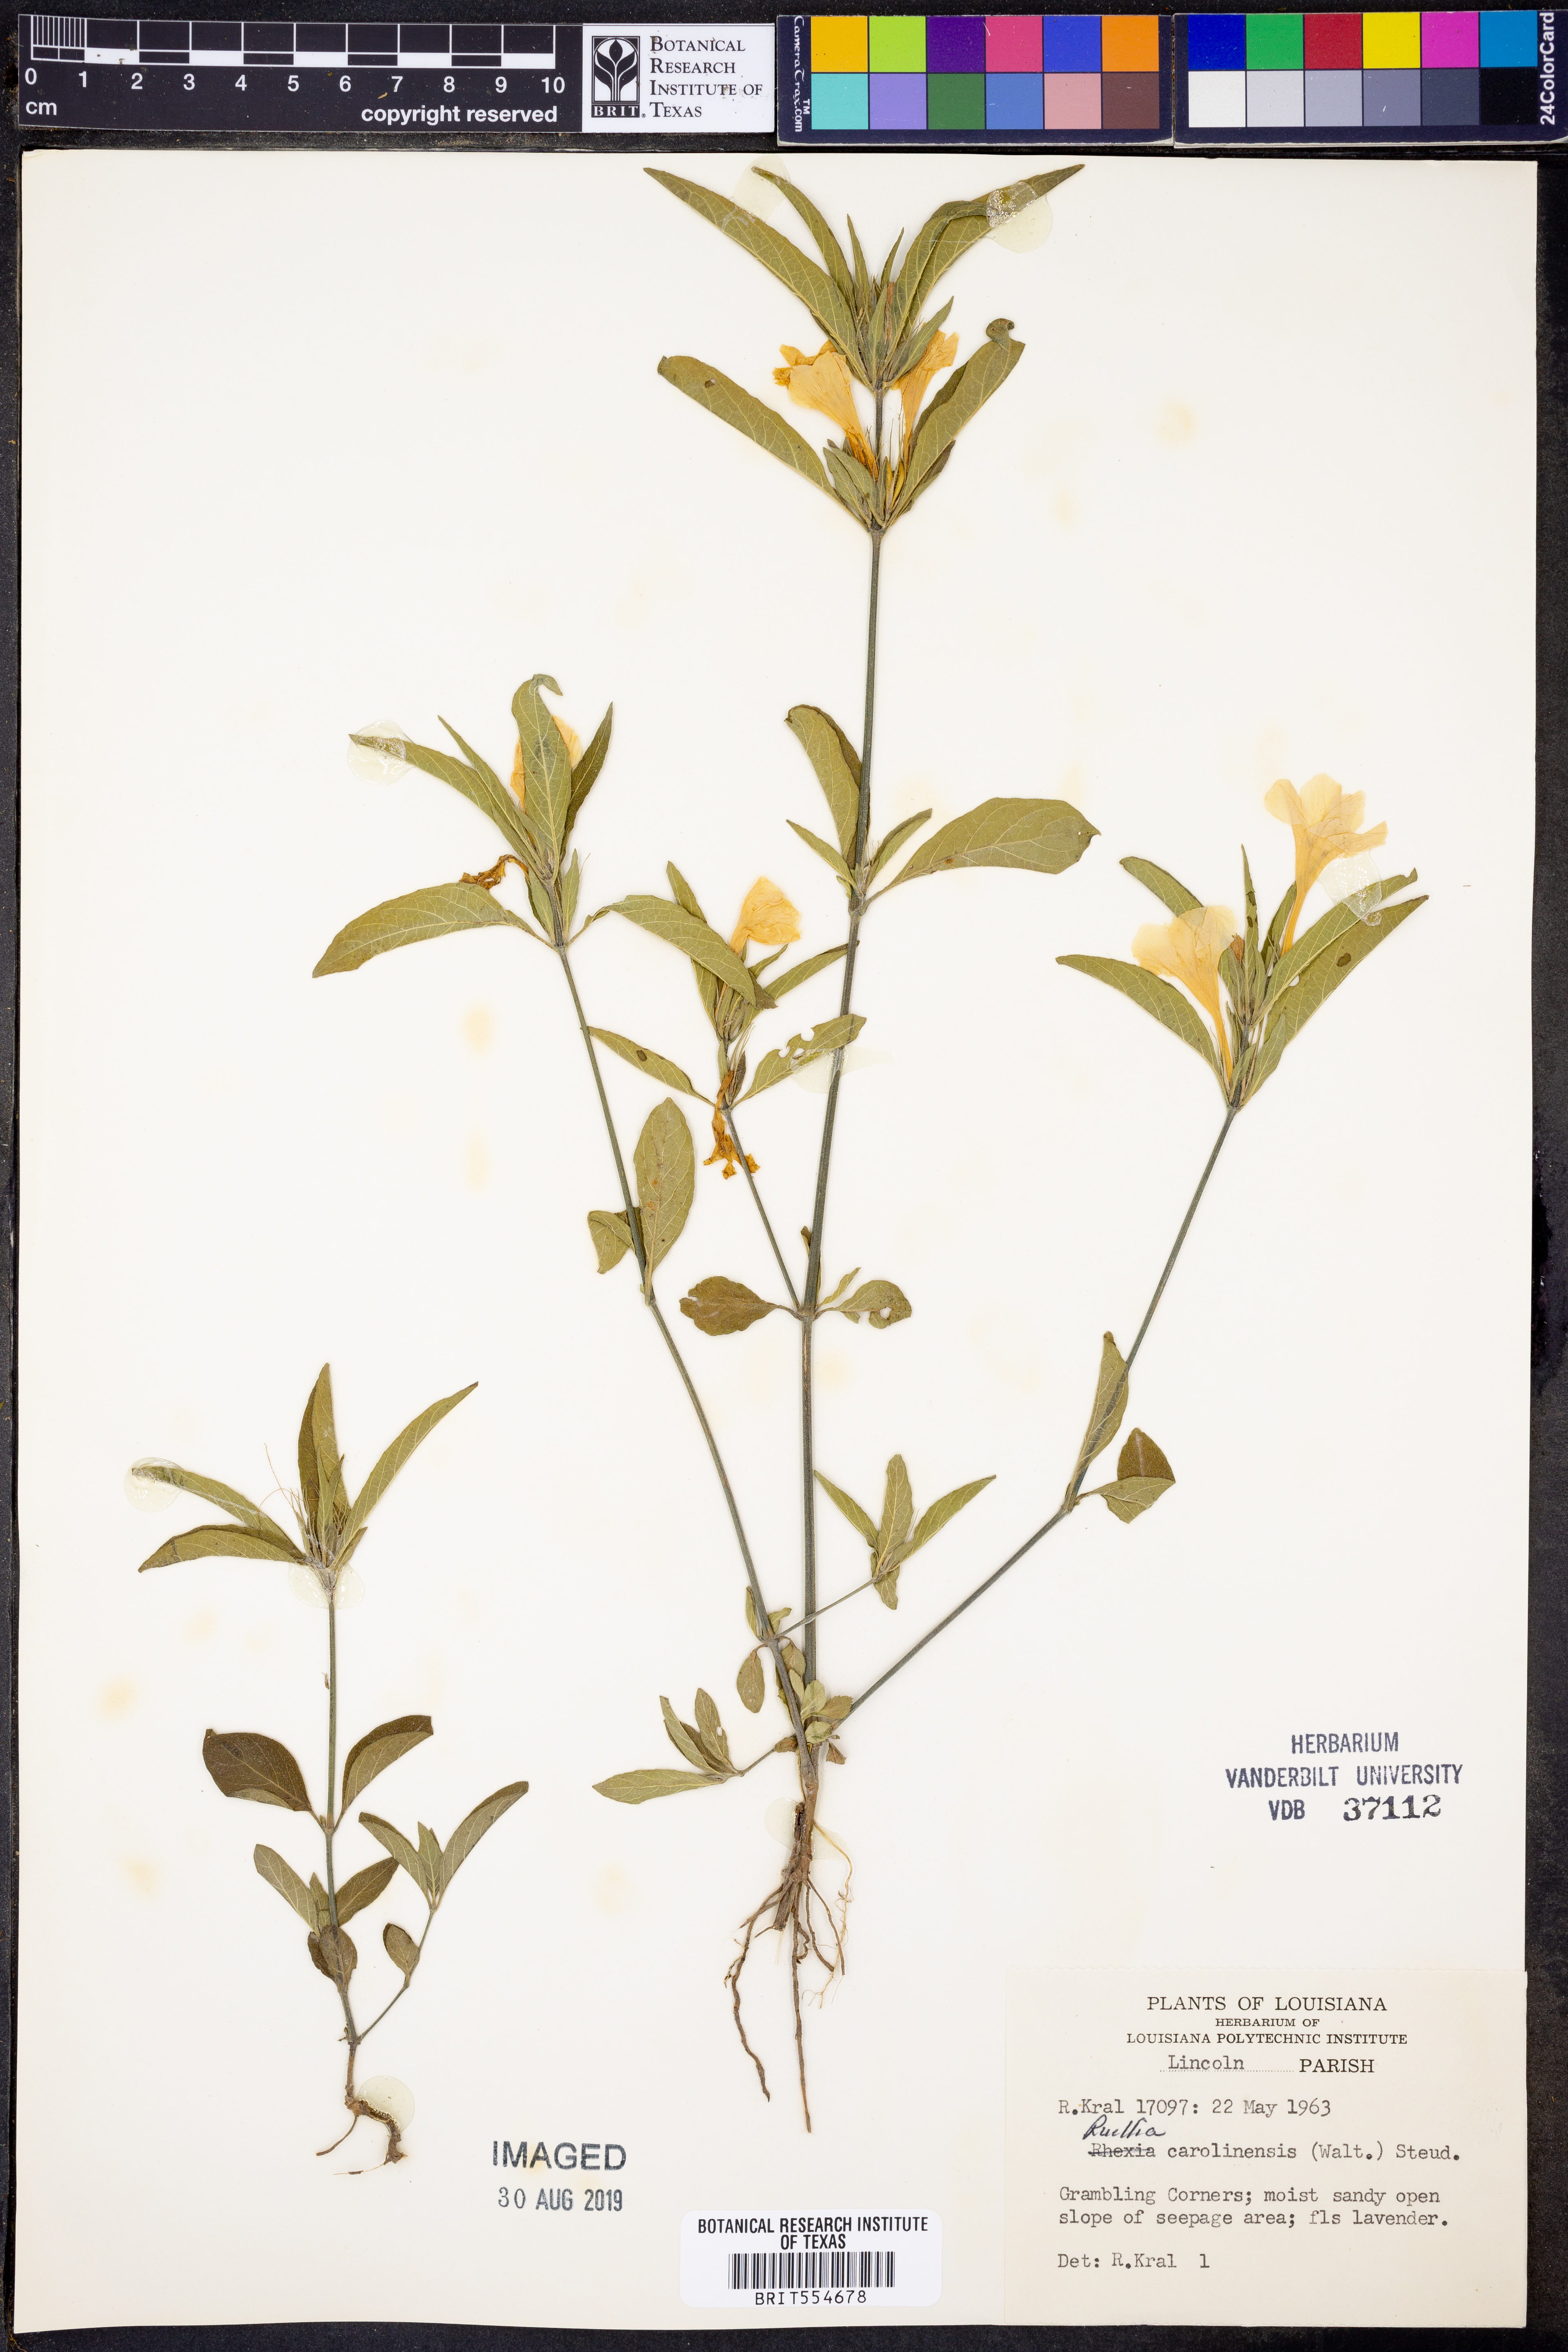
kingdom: Plantae
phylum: Tracheophyta
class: Magnoliopsida
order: Lamiales
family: Acanthaceae
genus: Ruellia
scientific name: Ruellia caroliniensis
